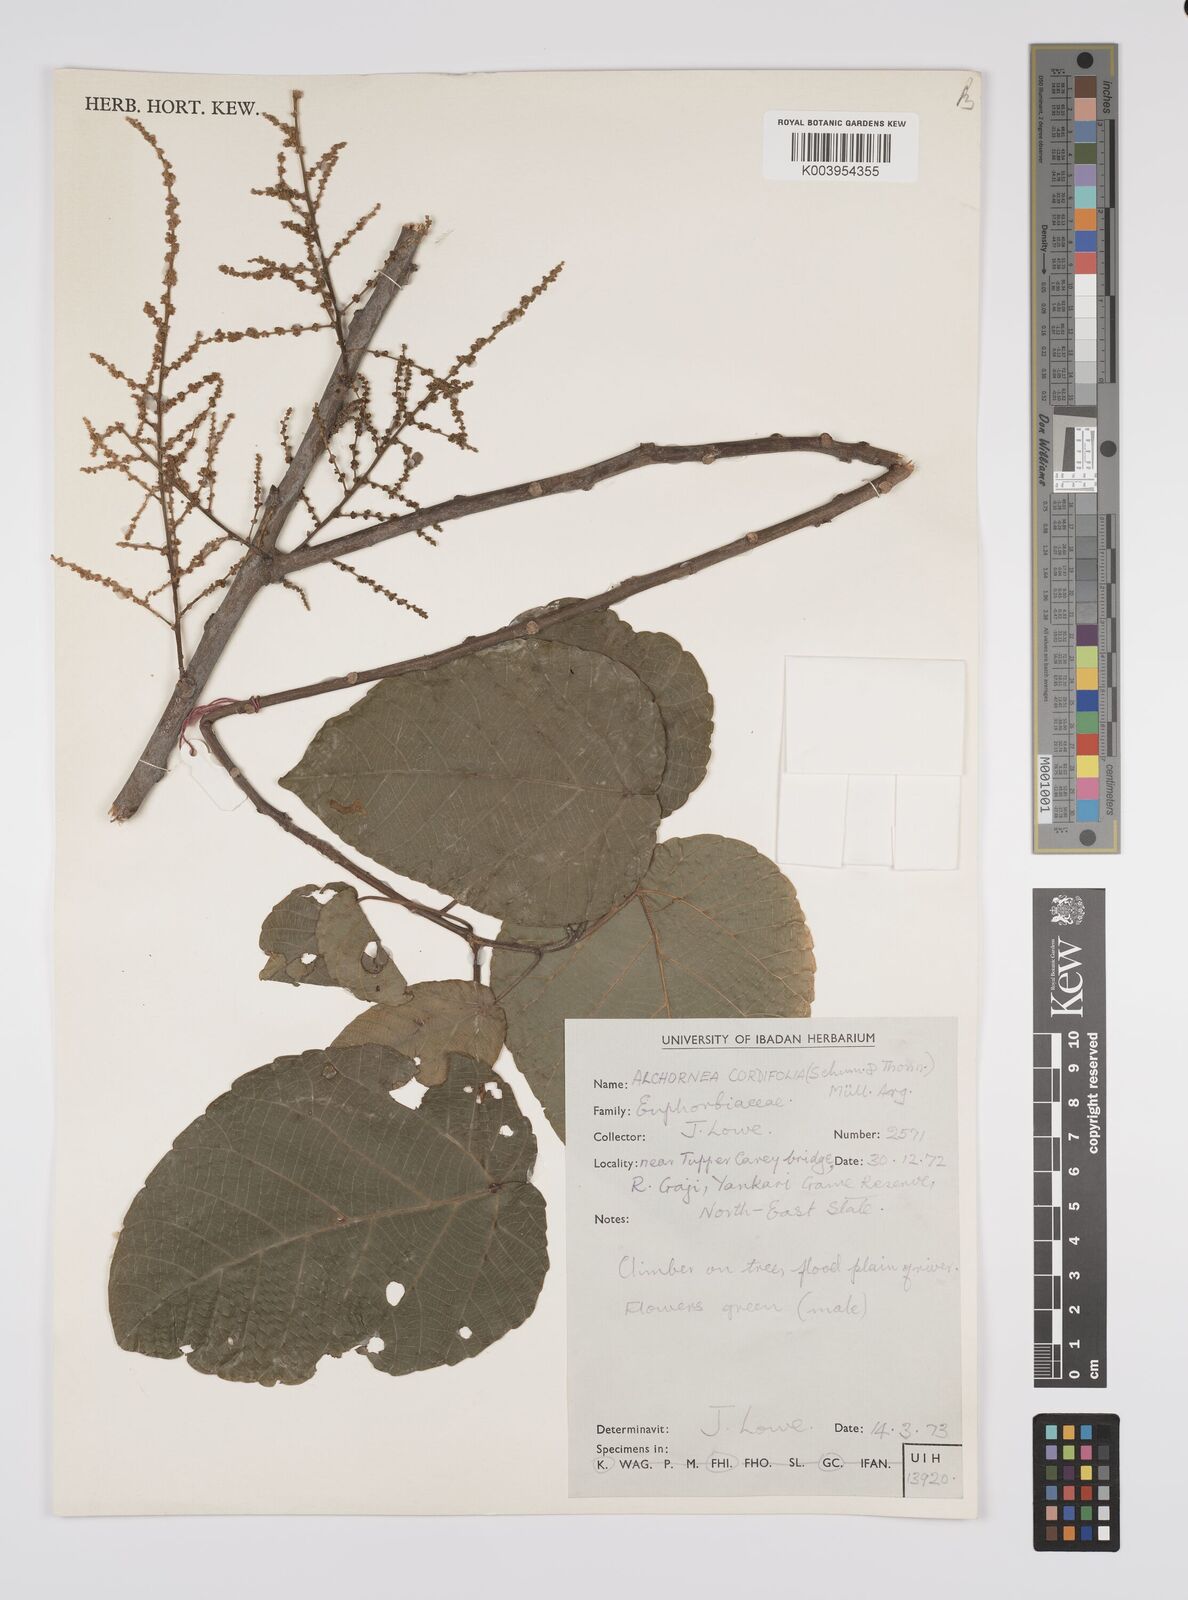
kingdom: Plantae
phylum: Tracheophyta
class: Magnoliopsida
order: Malpighiales
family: Euphorbiaceae
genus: Alchornea
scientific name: Alchornea cordifolia
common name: Christmasbush
